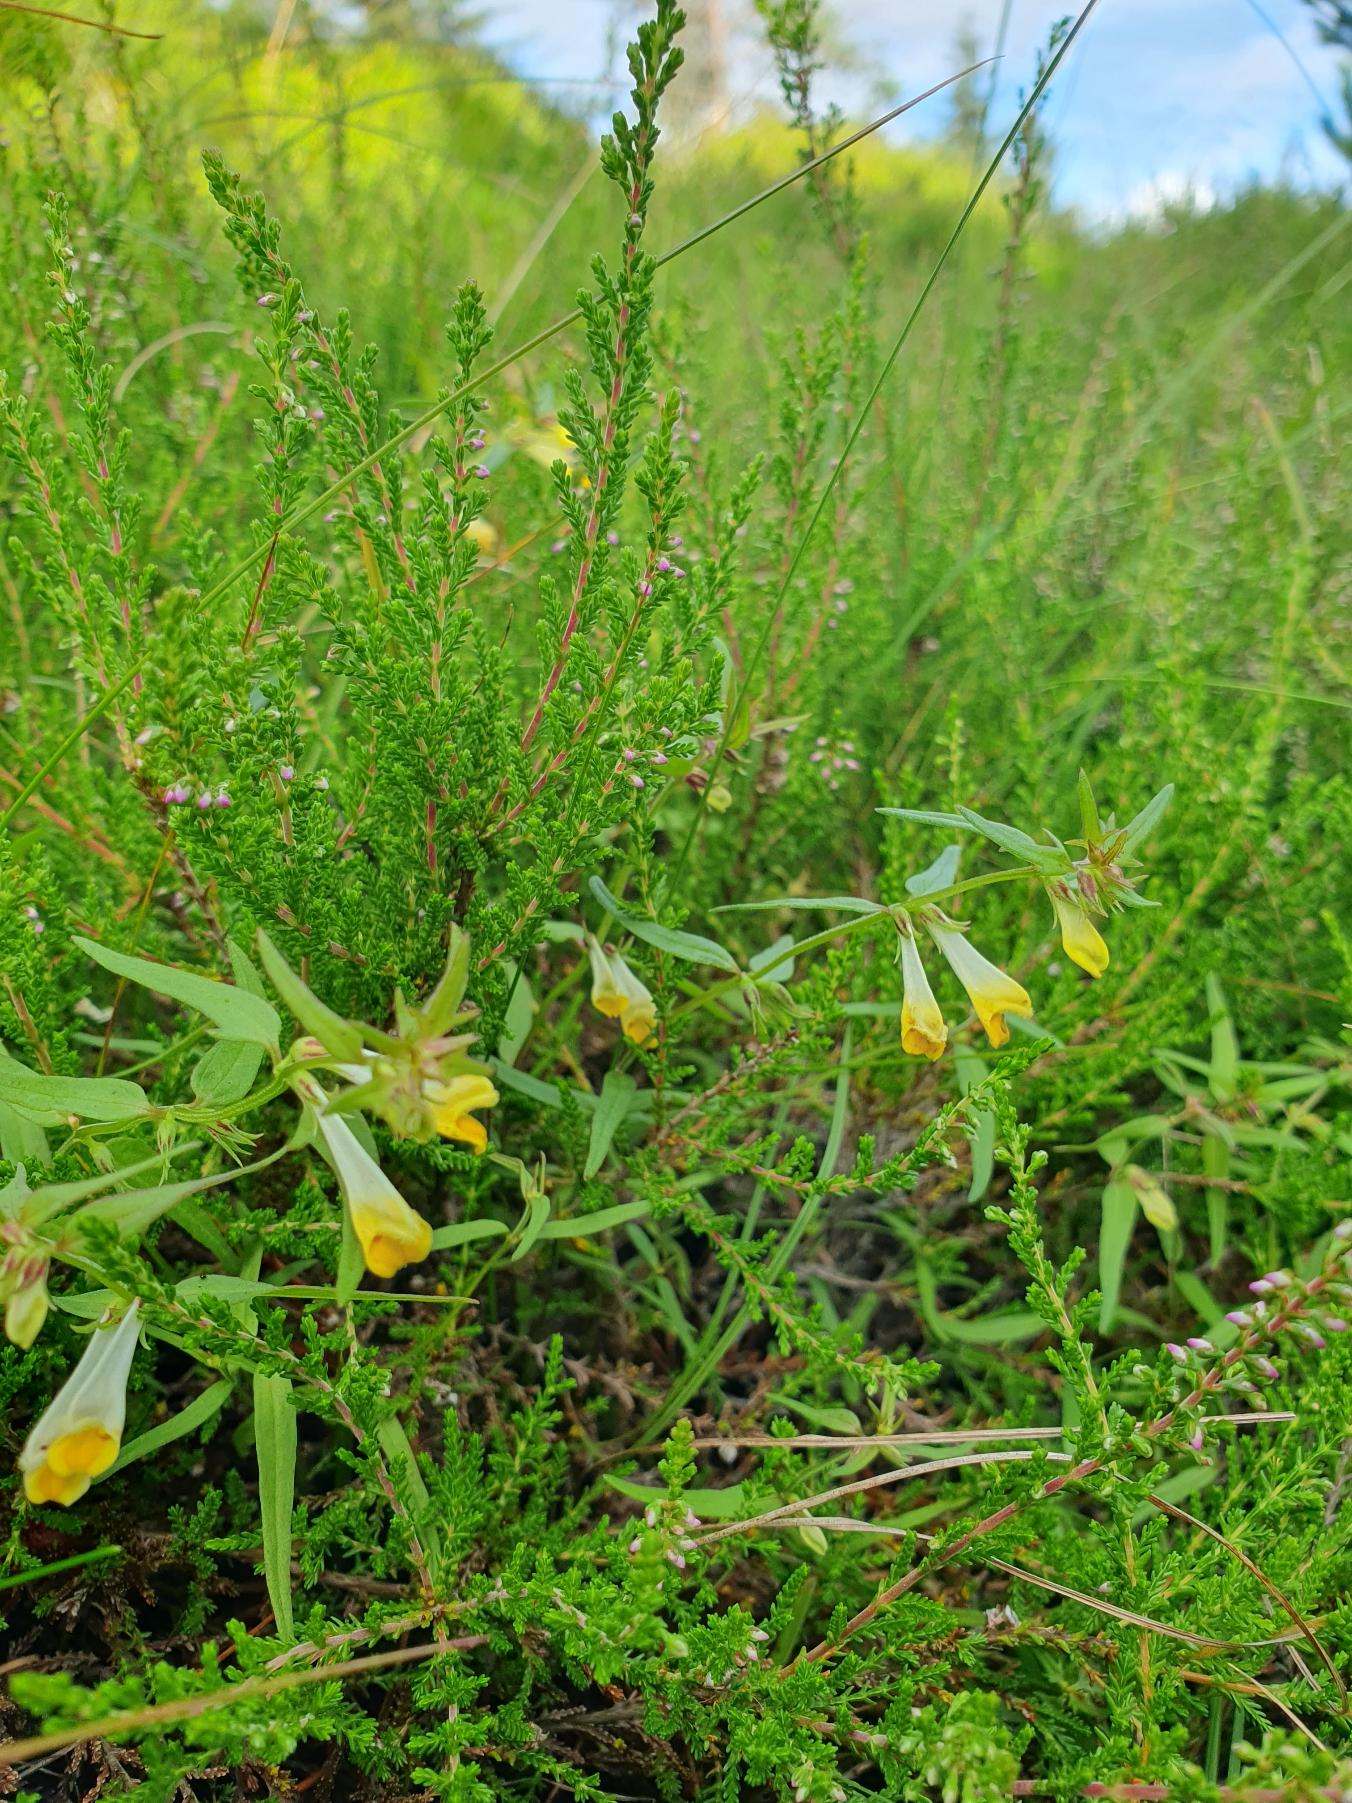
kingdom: Plantae
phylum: Tracheophyta
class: Magnoliopsida
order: Lamiales
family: Orobanchaceae
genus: Melampyrum
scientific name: Melampyrum pratense
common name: Almindelig kohvede
